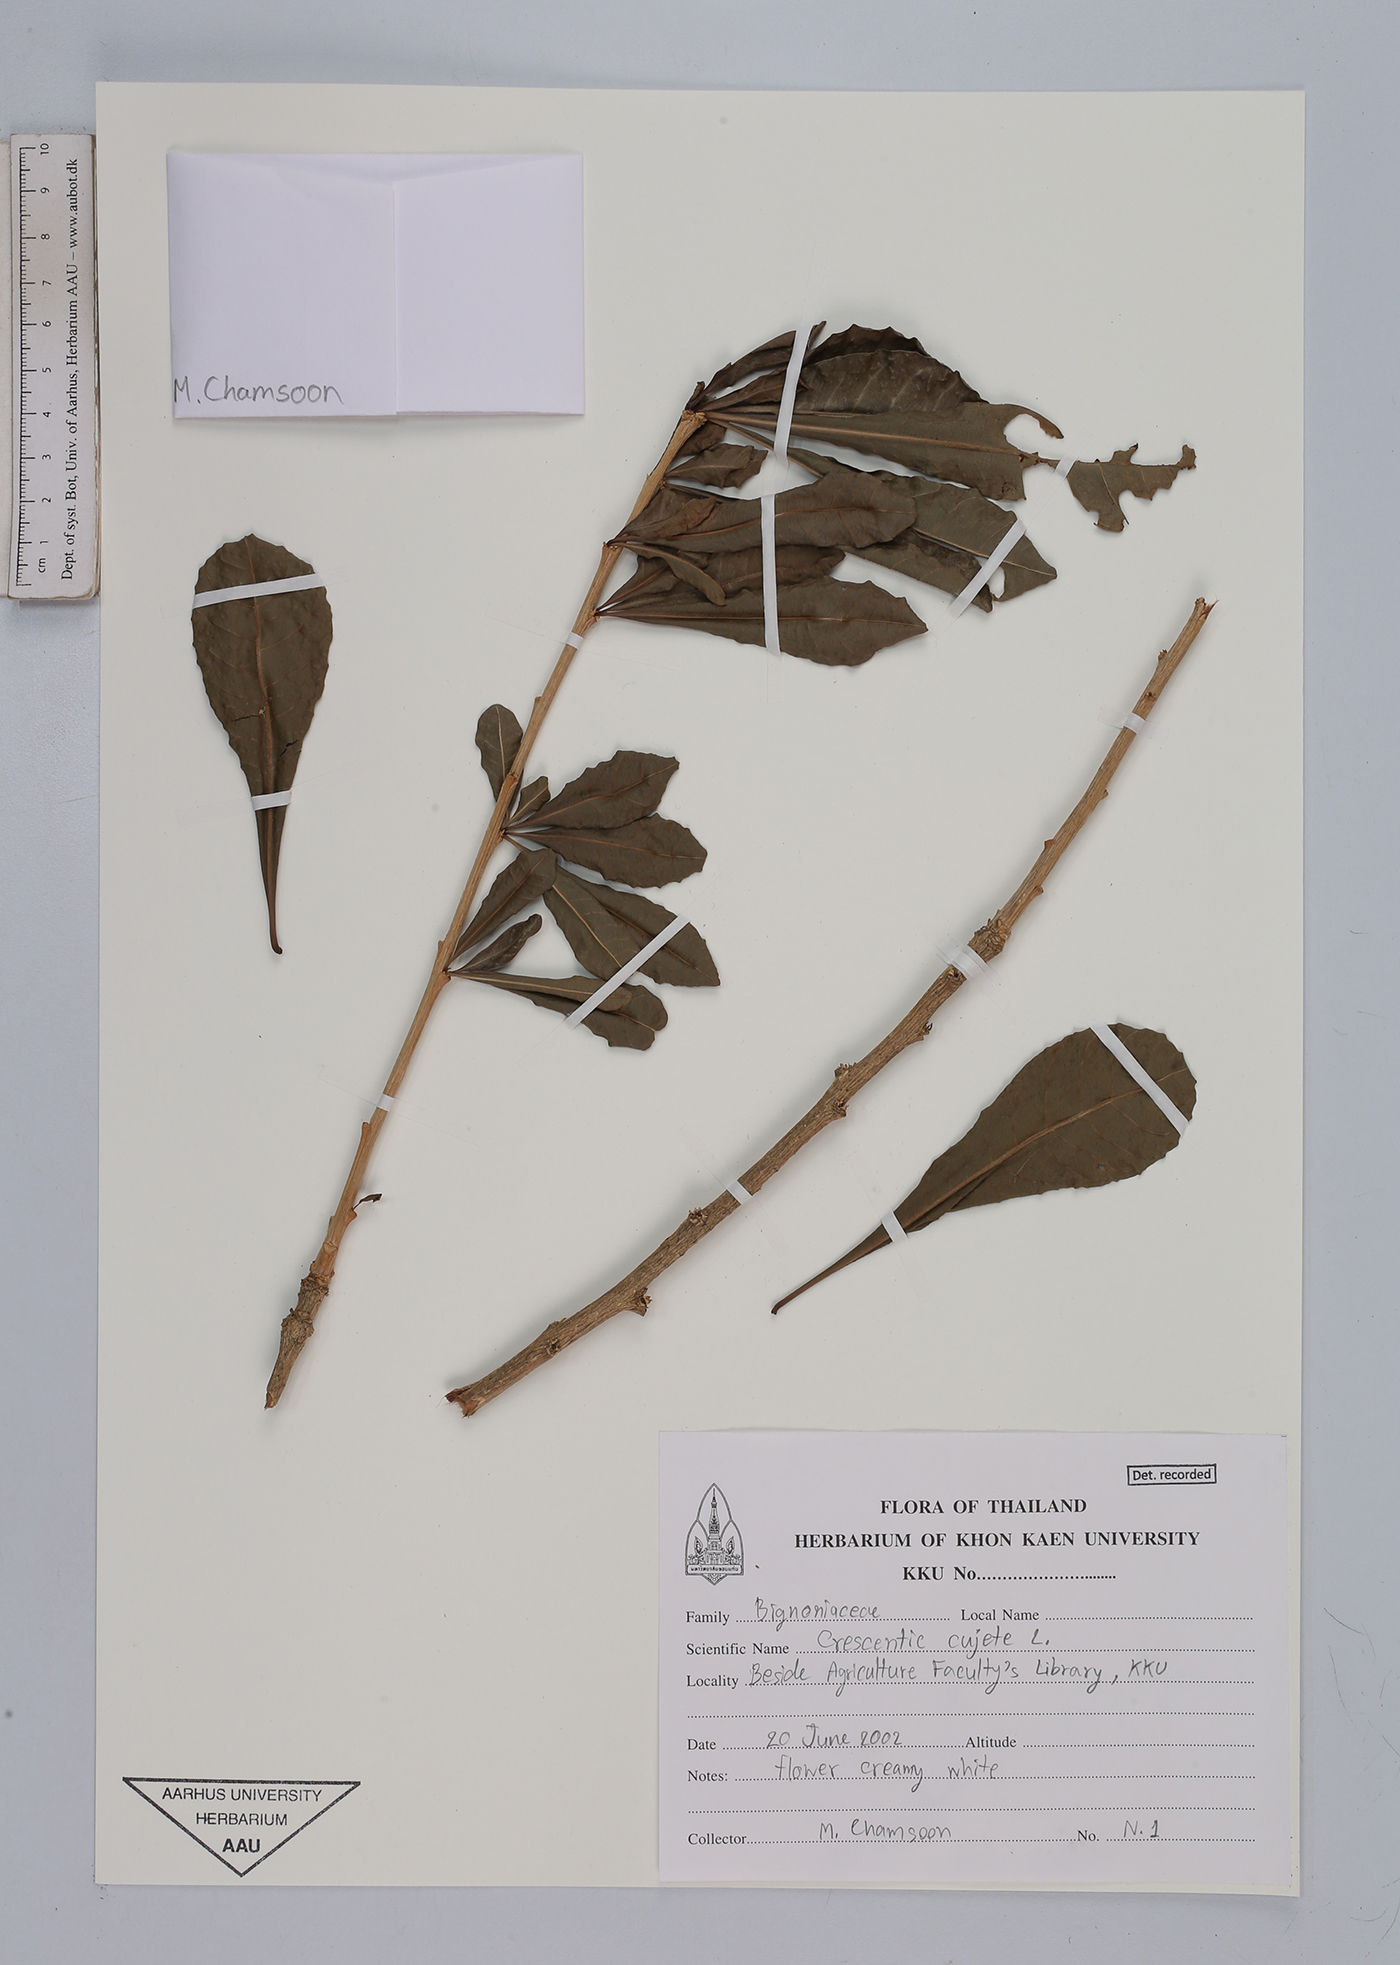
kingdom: Plantae
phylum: Tracheophyta
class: Magnoliopsida
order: Lamiales
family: Bignoniaceae
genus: Crescentia
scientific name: Crescentia cujete
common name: Calabash
